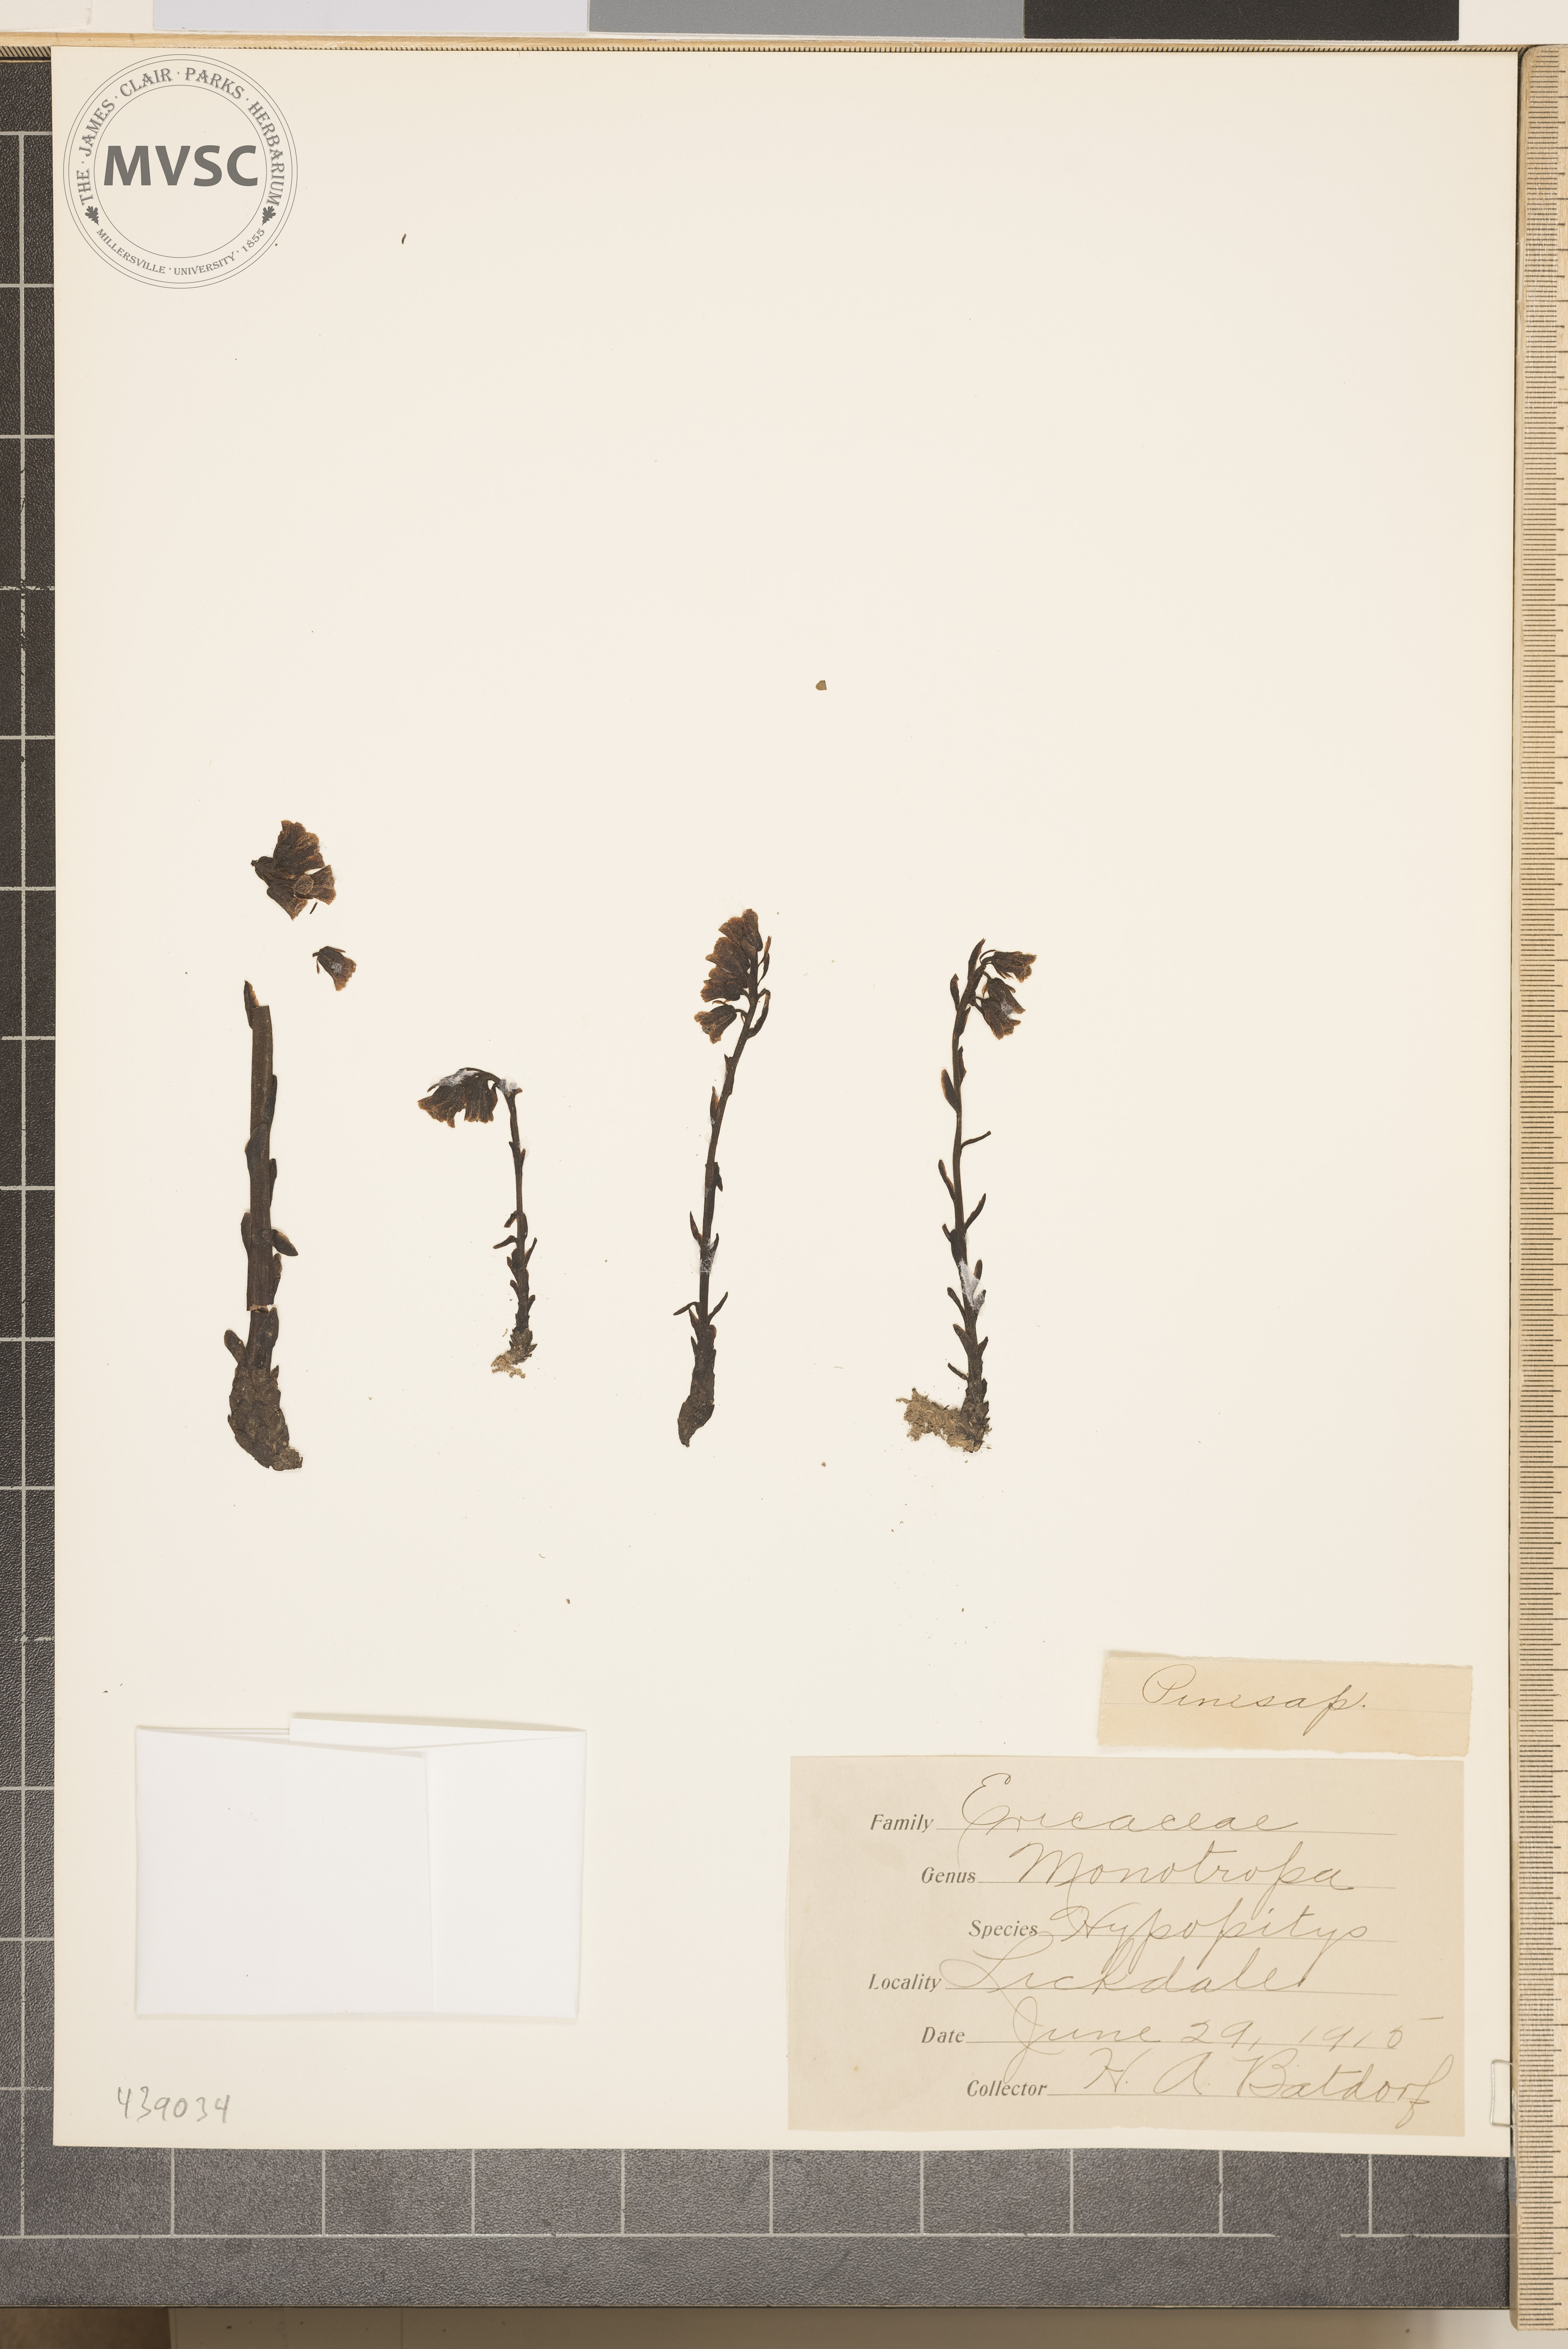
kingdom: Plantae
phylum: Tracheophyta
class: Magnoliopsida
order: Ericales
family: Ericaceae
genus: Hypopitys
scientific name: Hypopitys monotropa
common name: Pinesap
